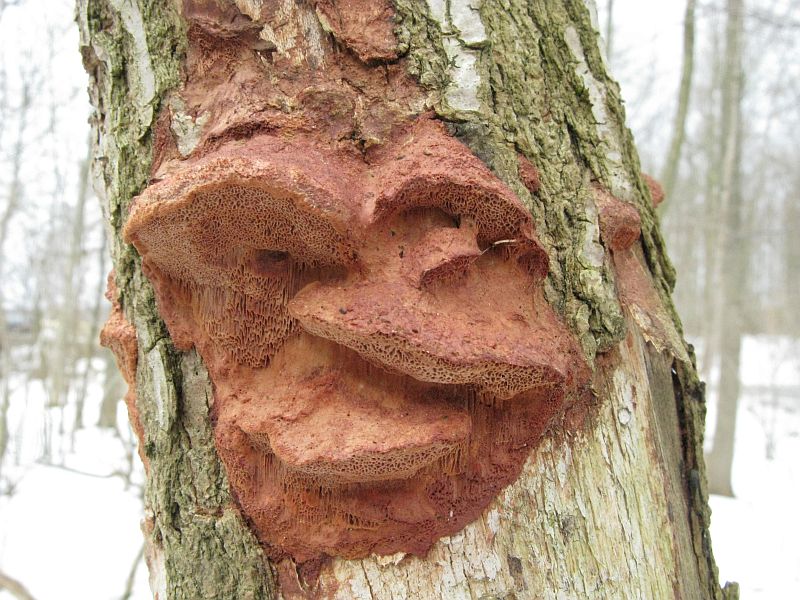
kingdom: Fungi
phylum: Basidiomycota
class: Agaricomycetes
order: Polyporales
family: Phanerochaetaceae
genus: Hapalopilus
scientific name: Hapalopilus rutilans
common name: rødlig okkerporesvamp
